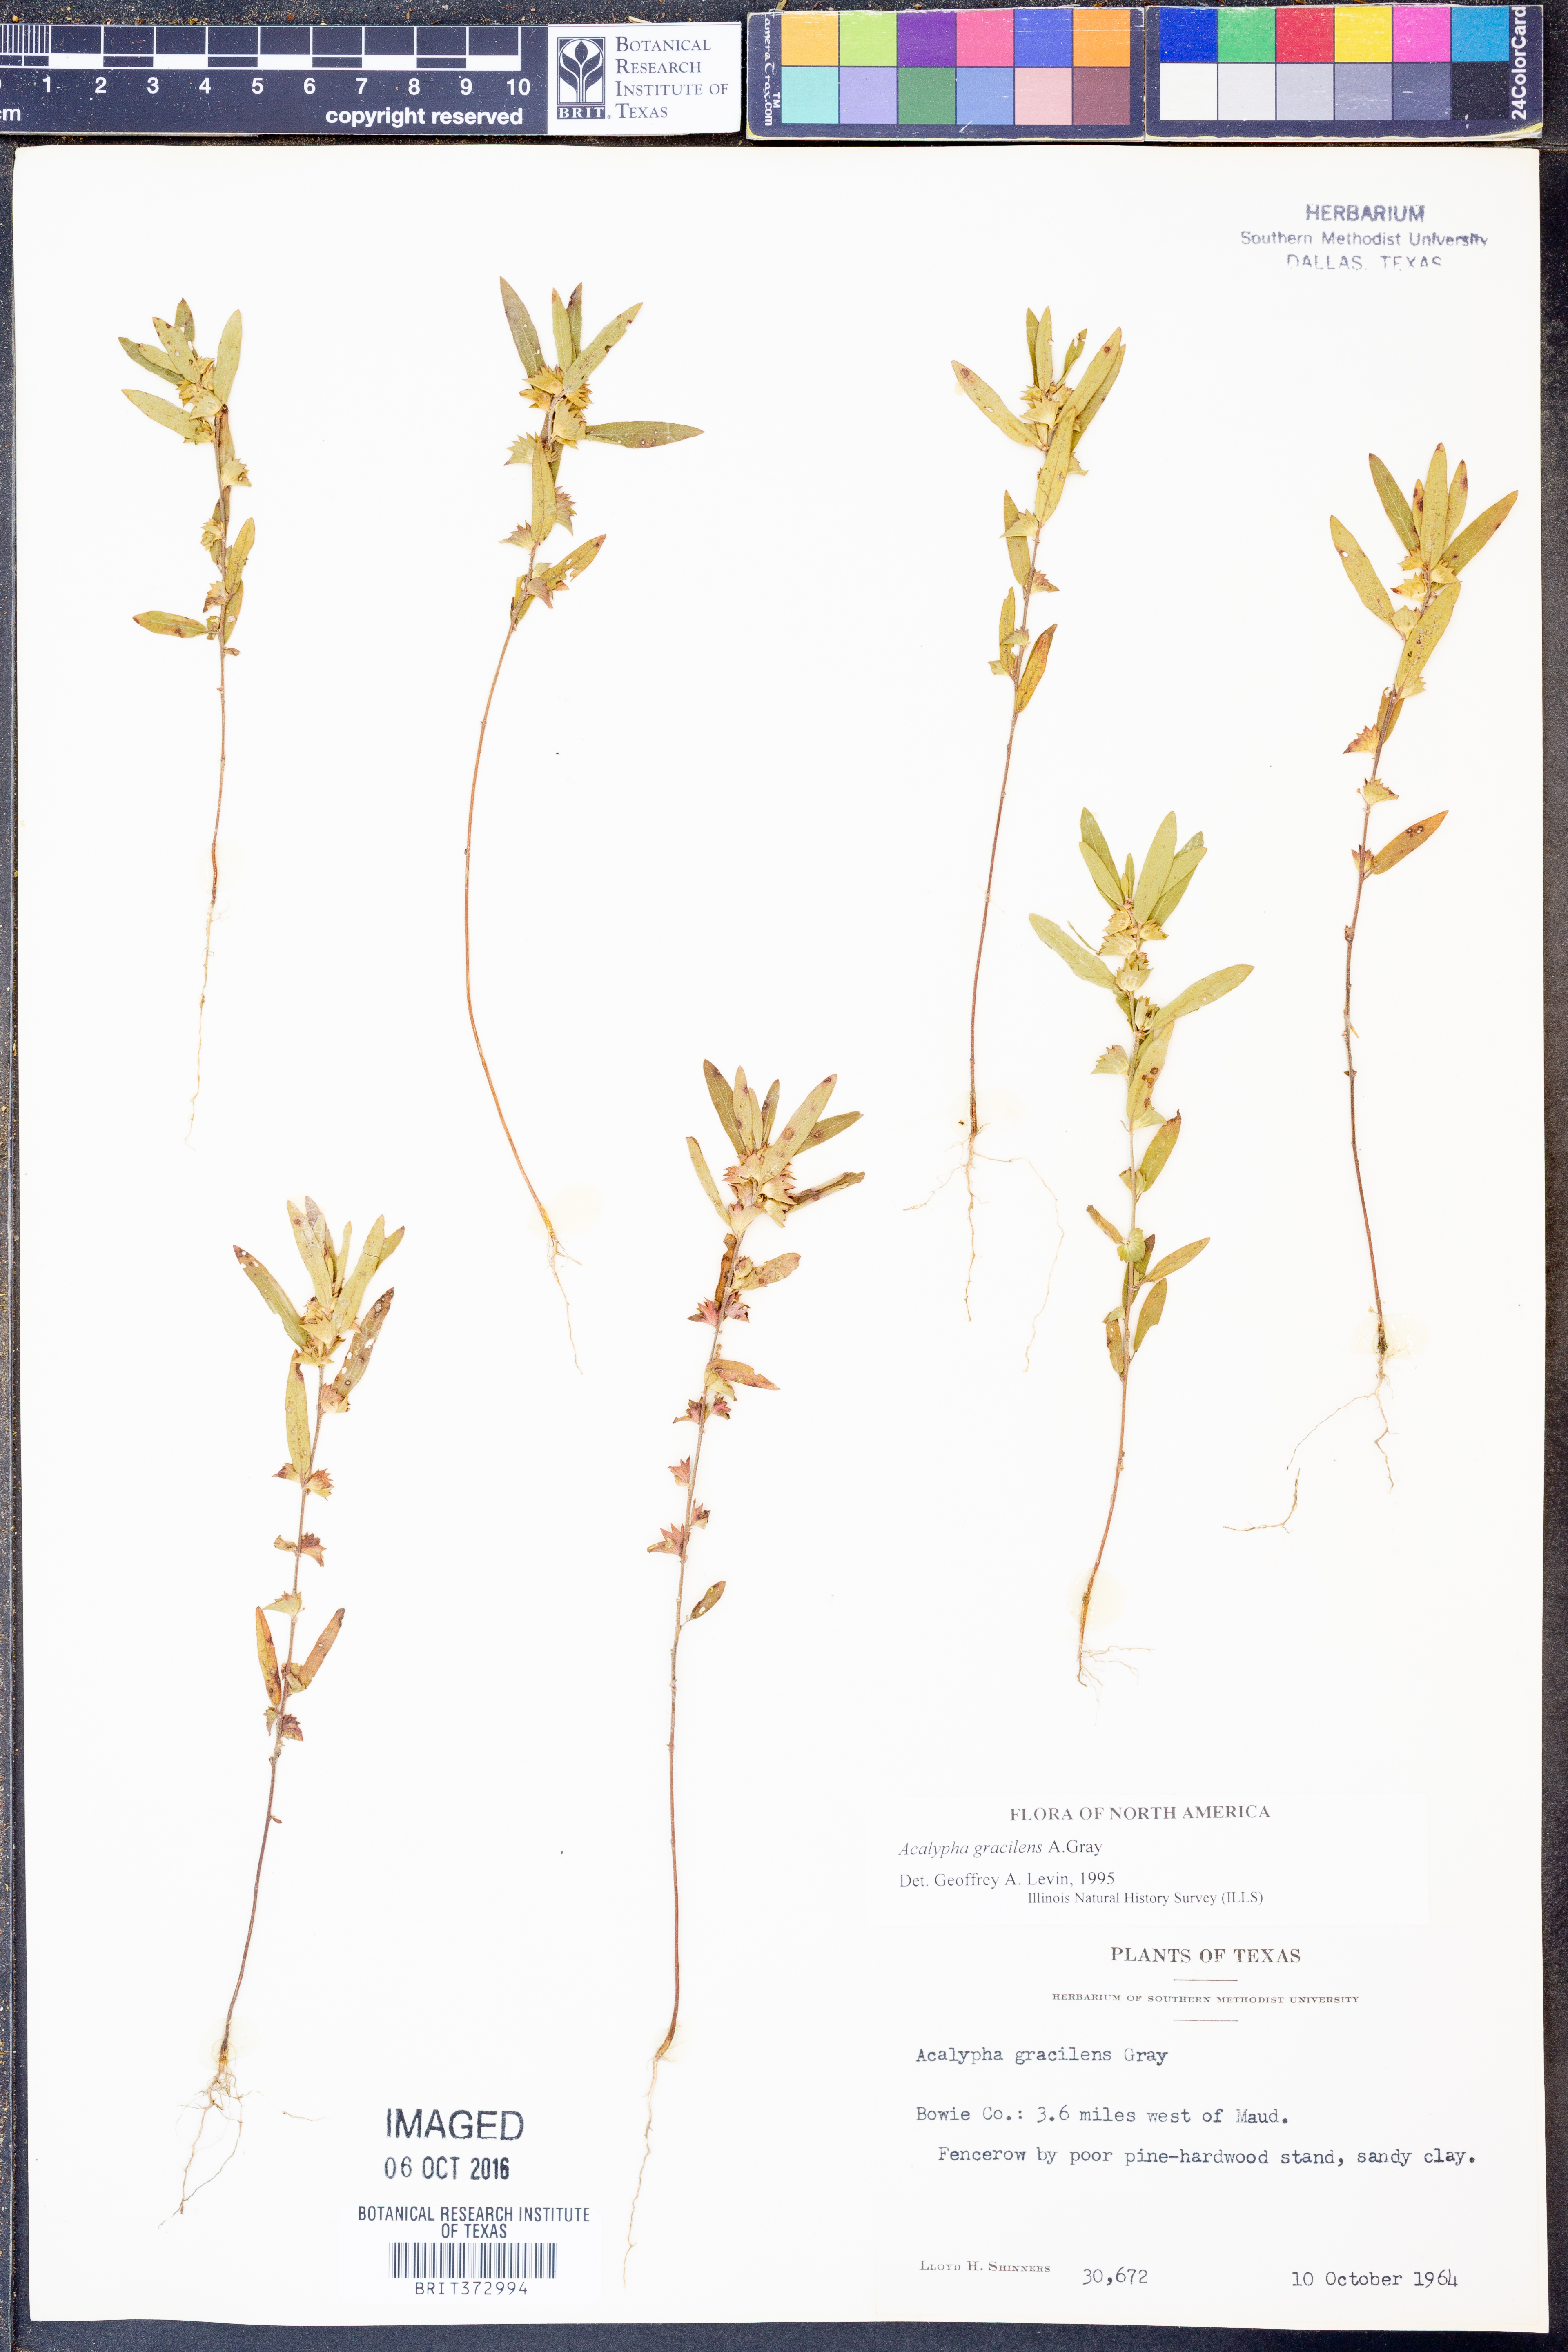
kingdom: Plantae
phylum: Tracheophyta
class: Magnoliopsida
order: Malpighiales
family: Euphorbiaceae
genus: Acalypha
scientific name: Acalypha gracilens
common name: Slender three-seeded mercury
